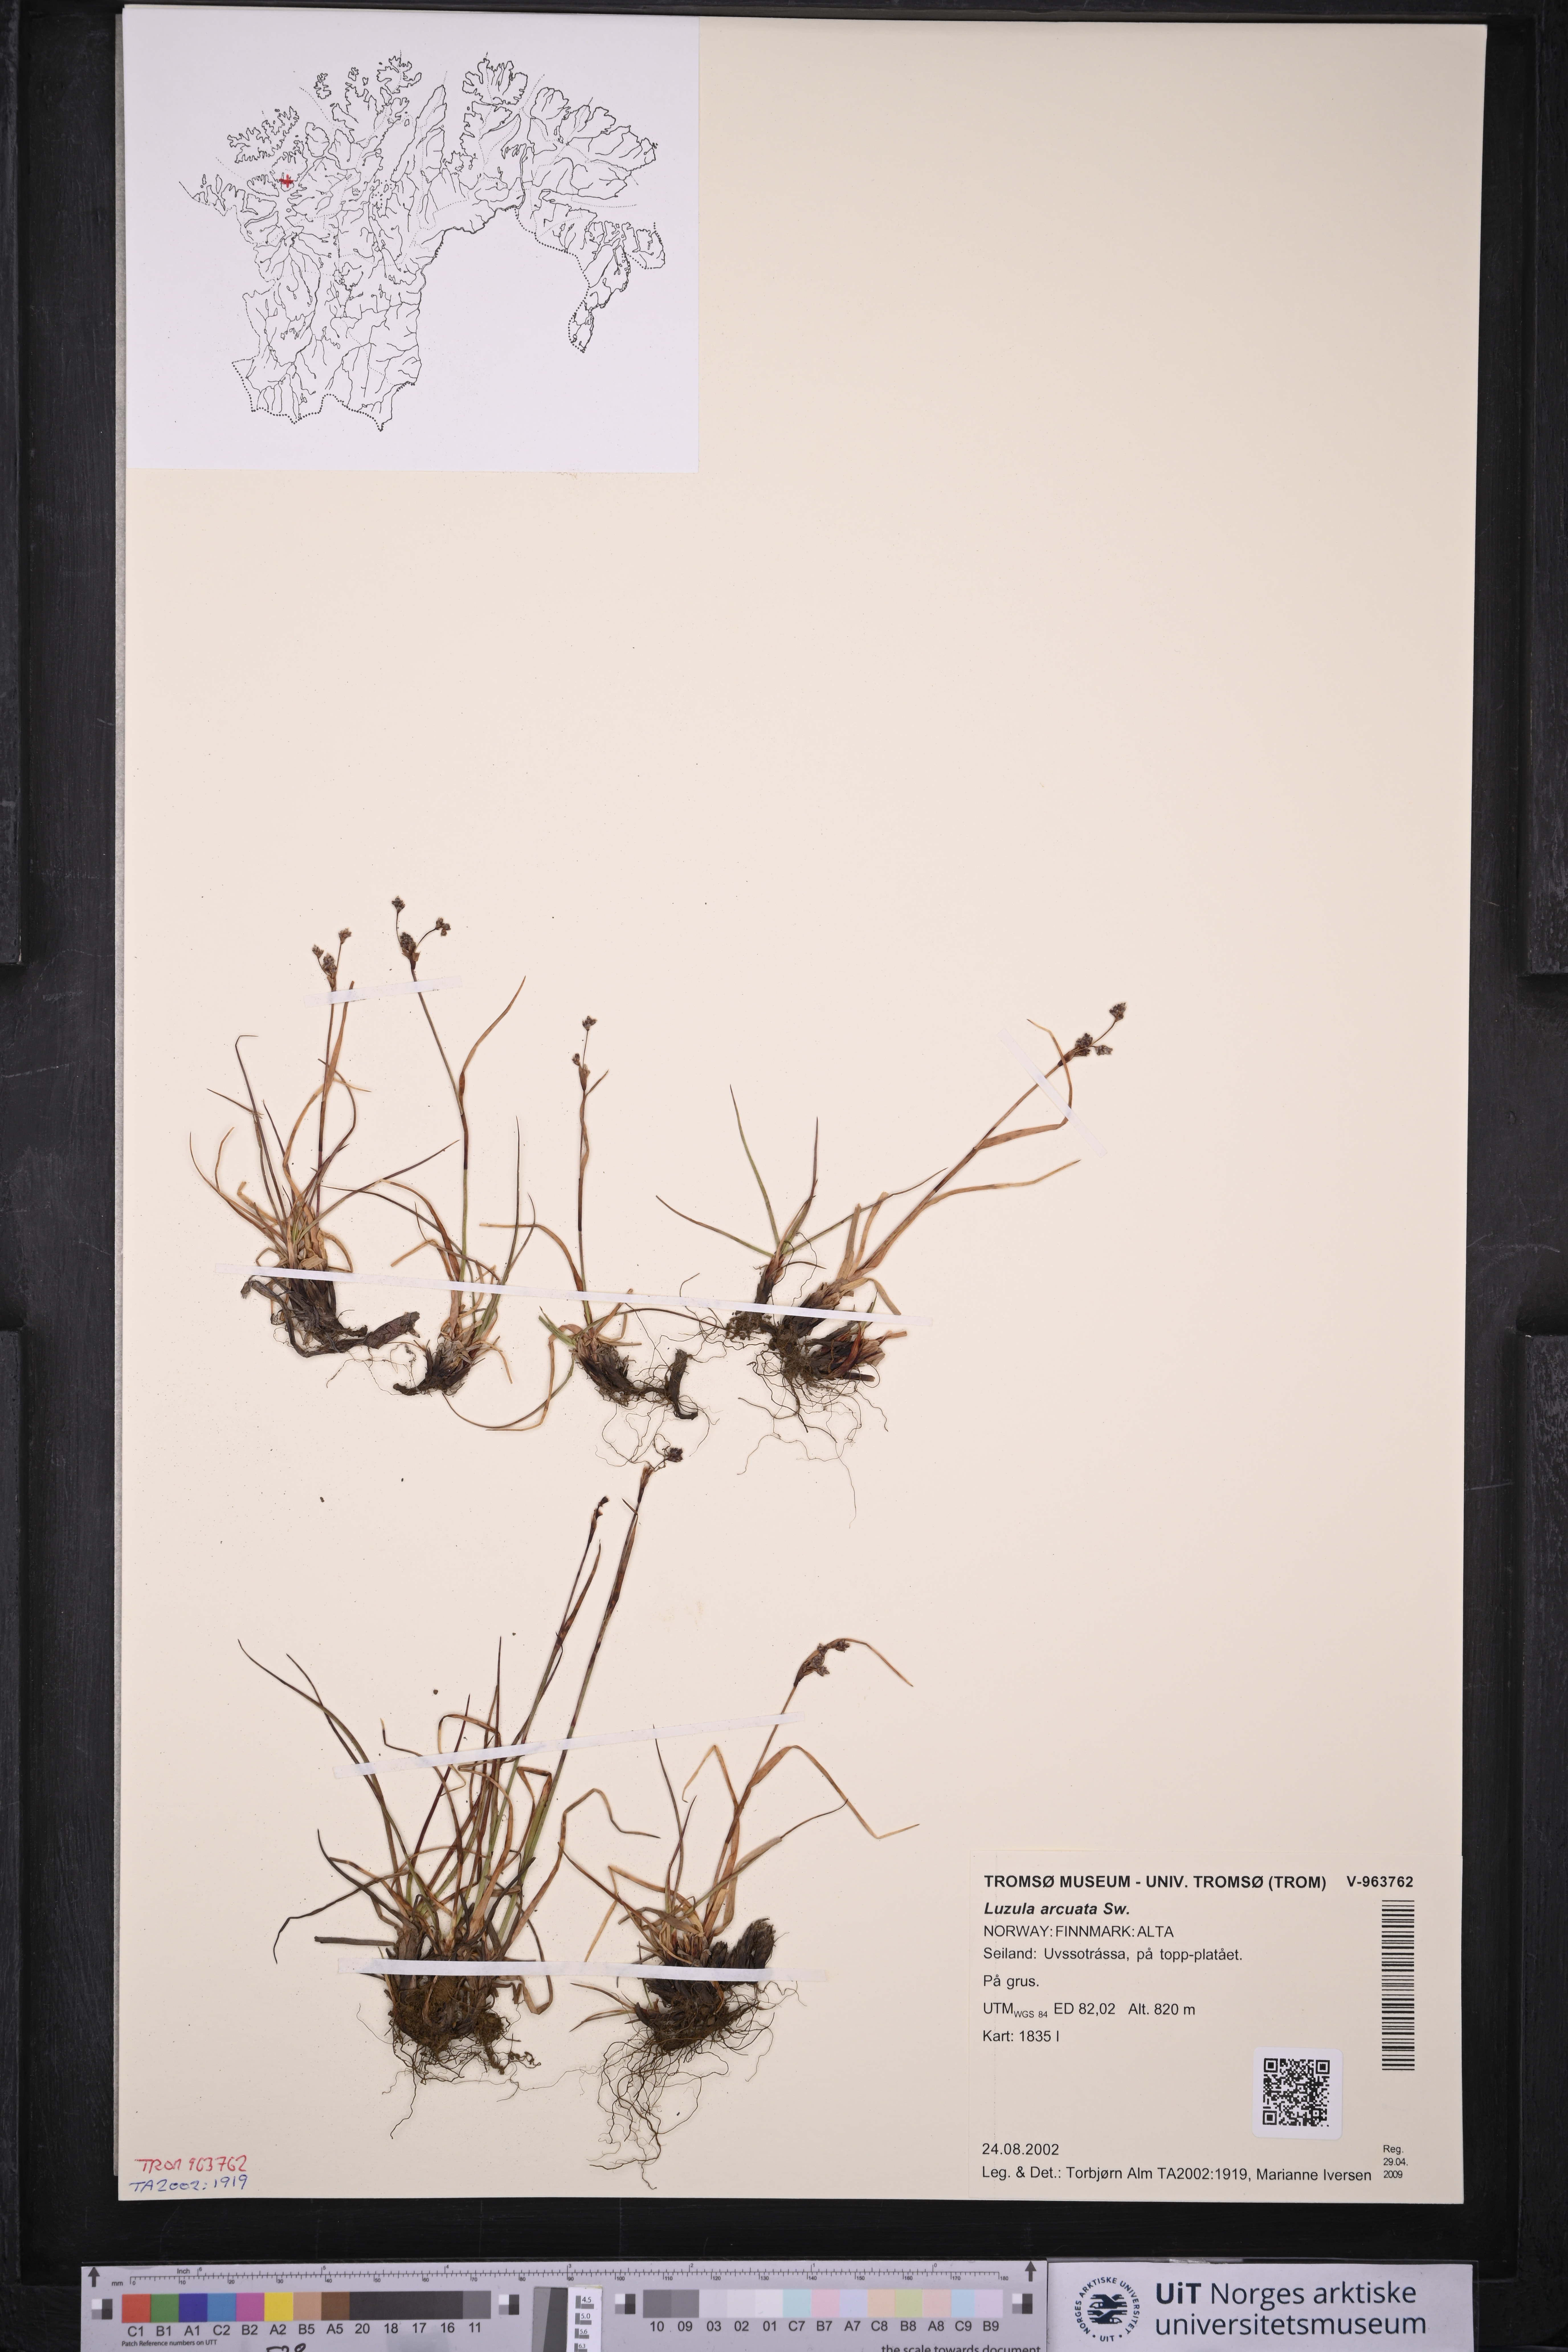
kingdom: Plantae
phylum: Tracheophyta
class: Liliopsida
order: Poales
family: Juncaceae
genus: Luzula
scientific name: Luzula arcuata
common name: Curved wood-rush
